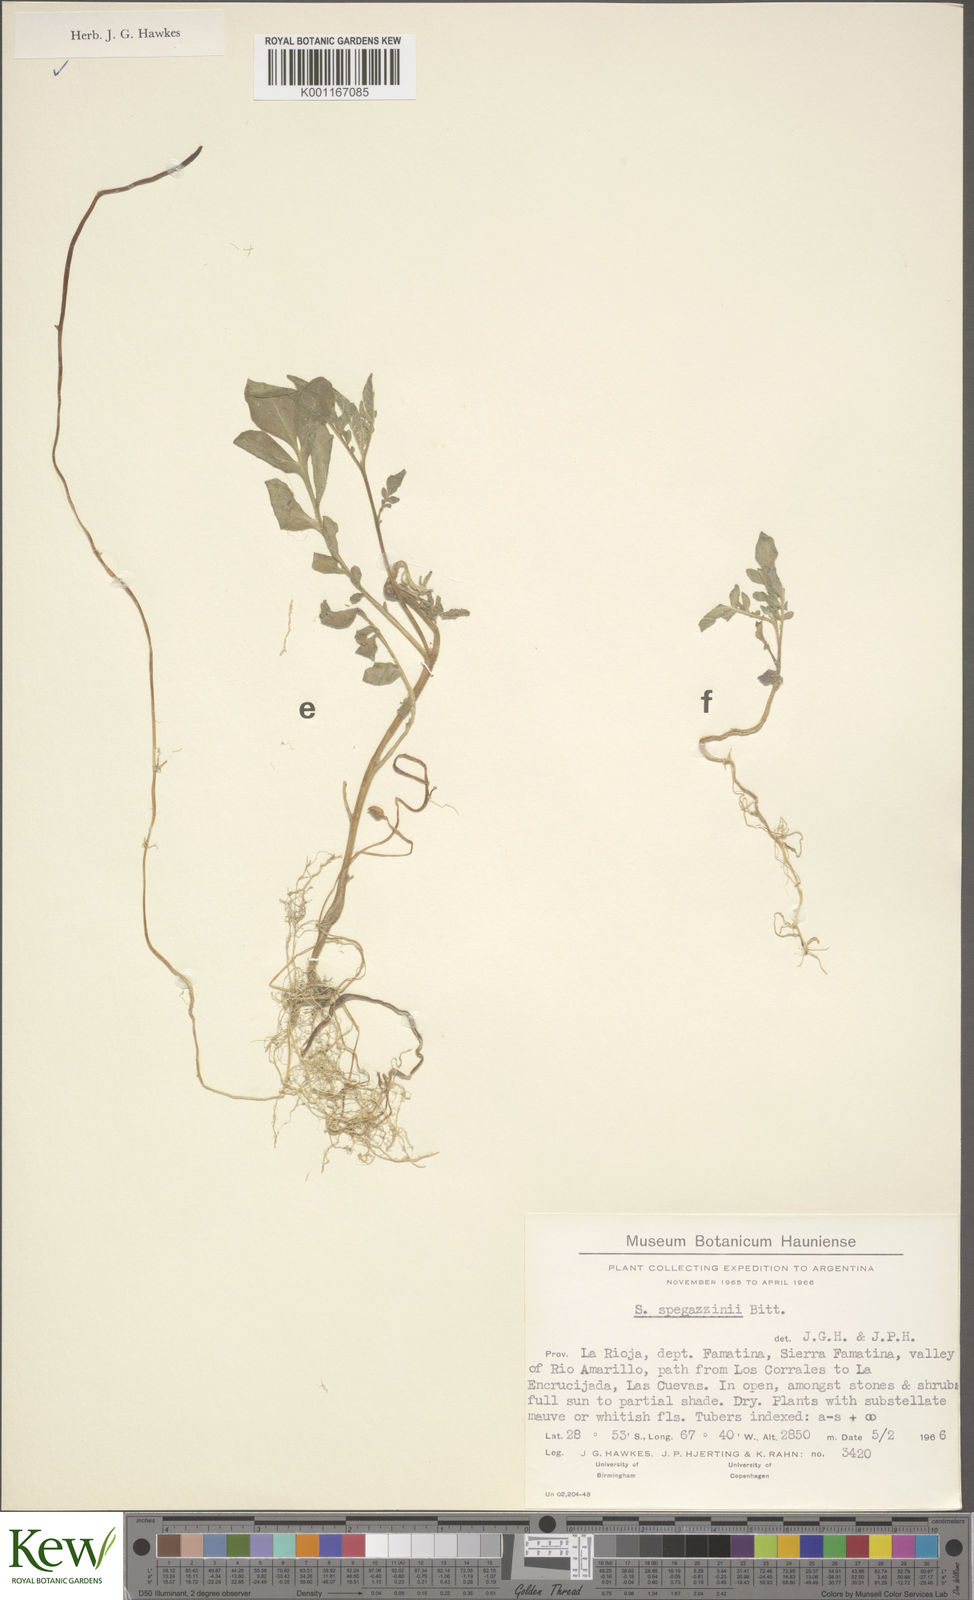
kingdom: Plantae
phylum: Tracheophyta
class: Magnoliopsida
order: Solanales
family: Solanaceae
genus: Solanum
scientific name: Solanum brevicaule
